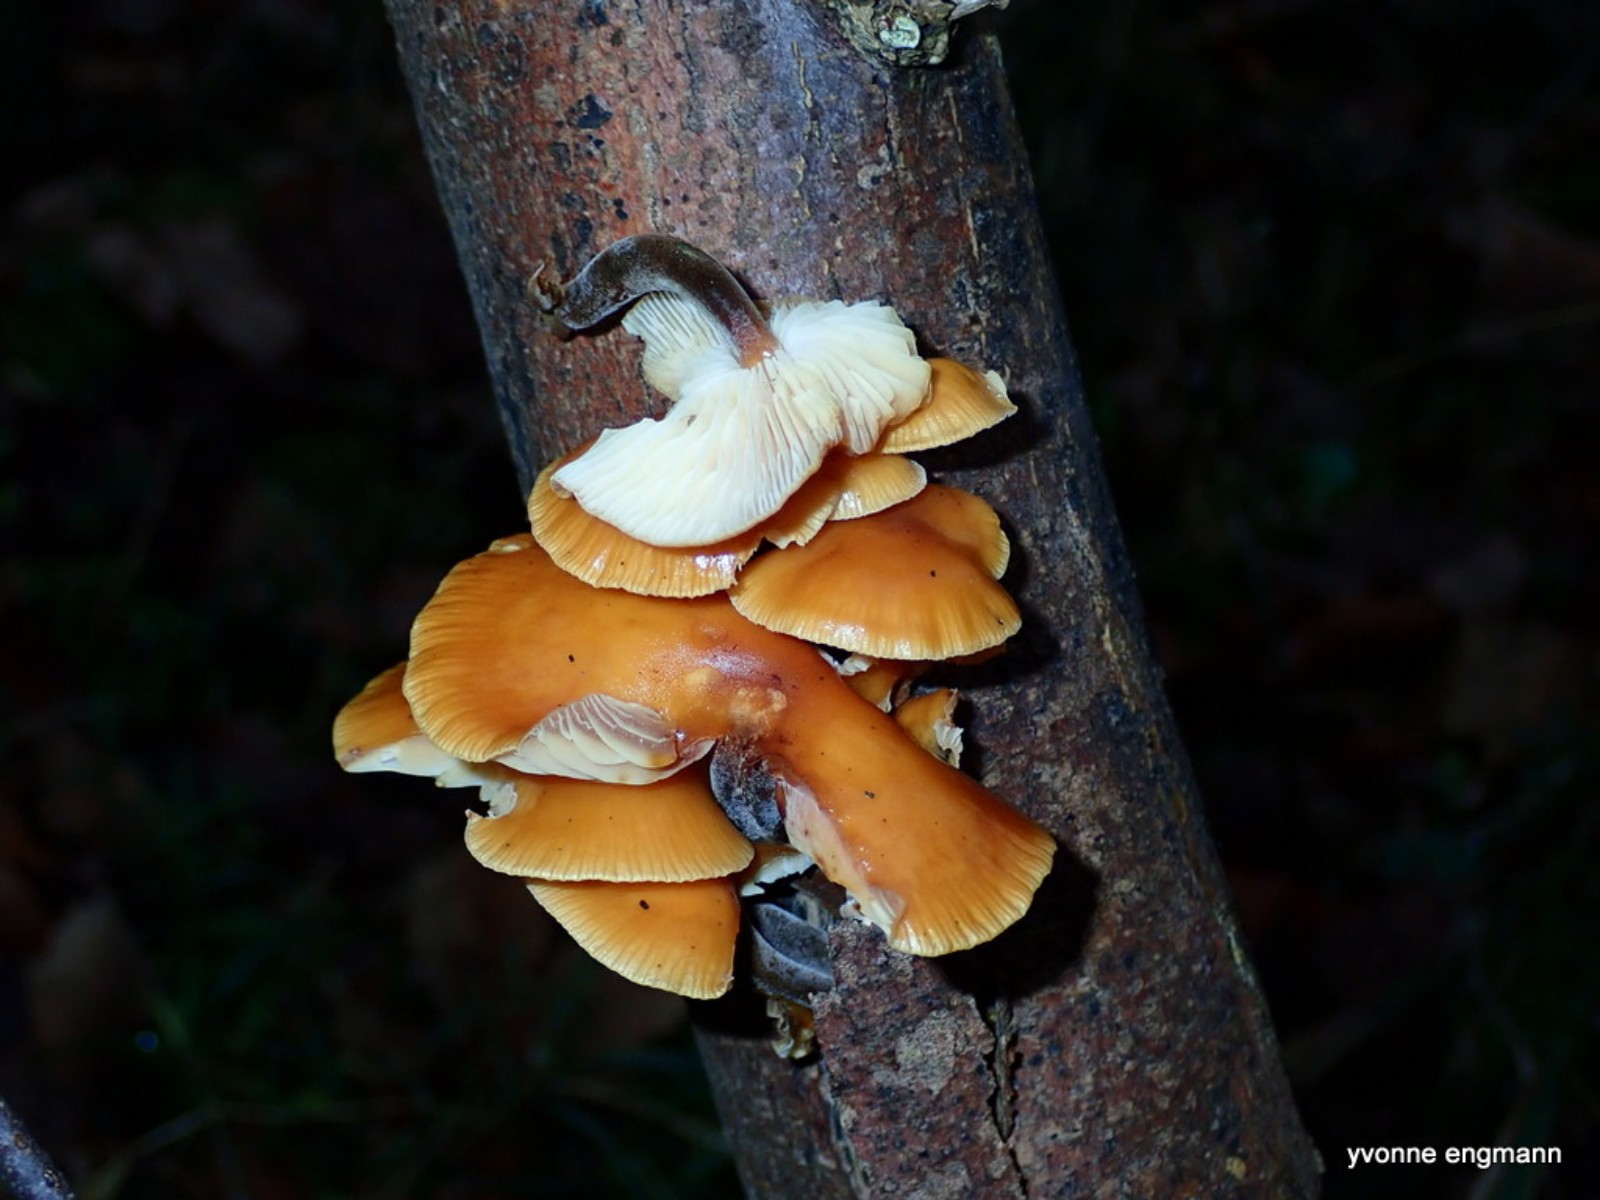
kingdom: Fungi
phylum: Basidiomycota
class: Agaricomycetes
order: Agaricales
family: Physalacriaceae
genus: Flammulina
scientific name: Flammulina velutipes
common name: gul fløjlsfod
